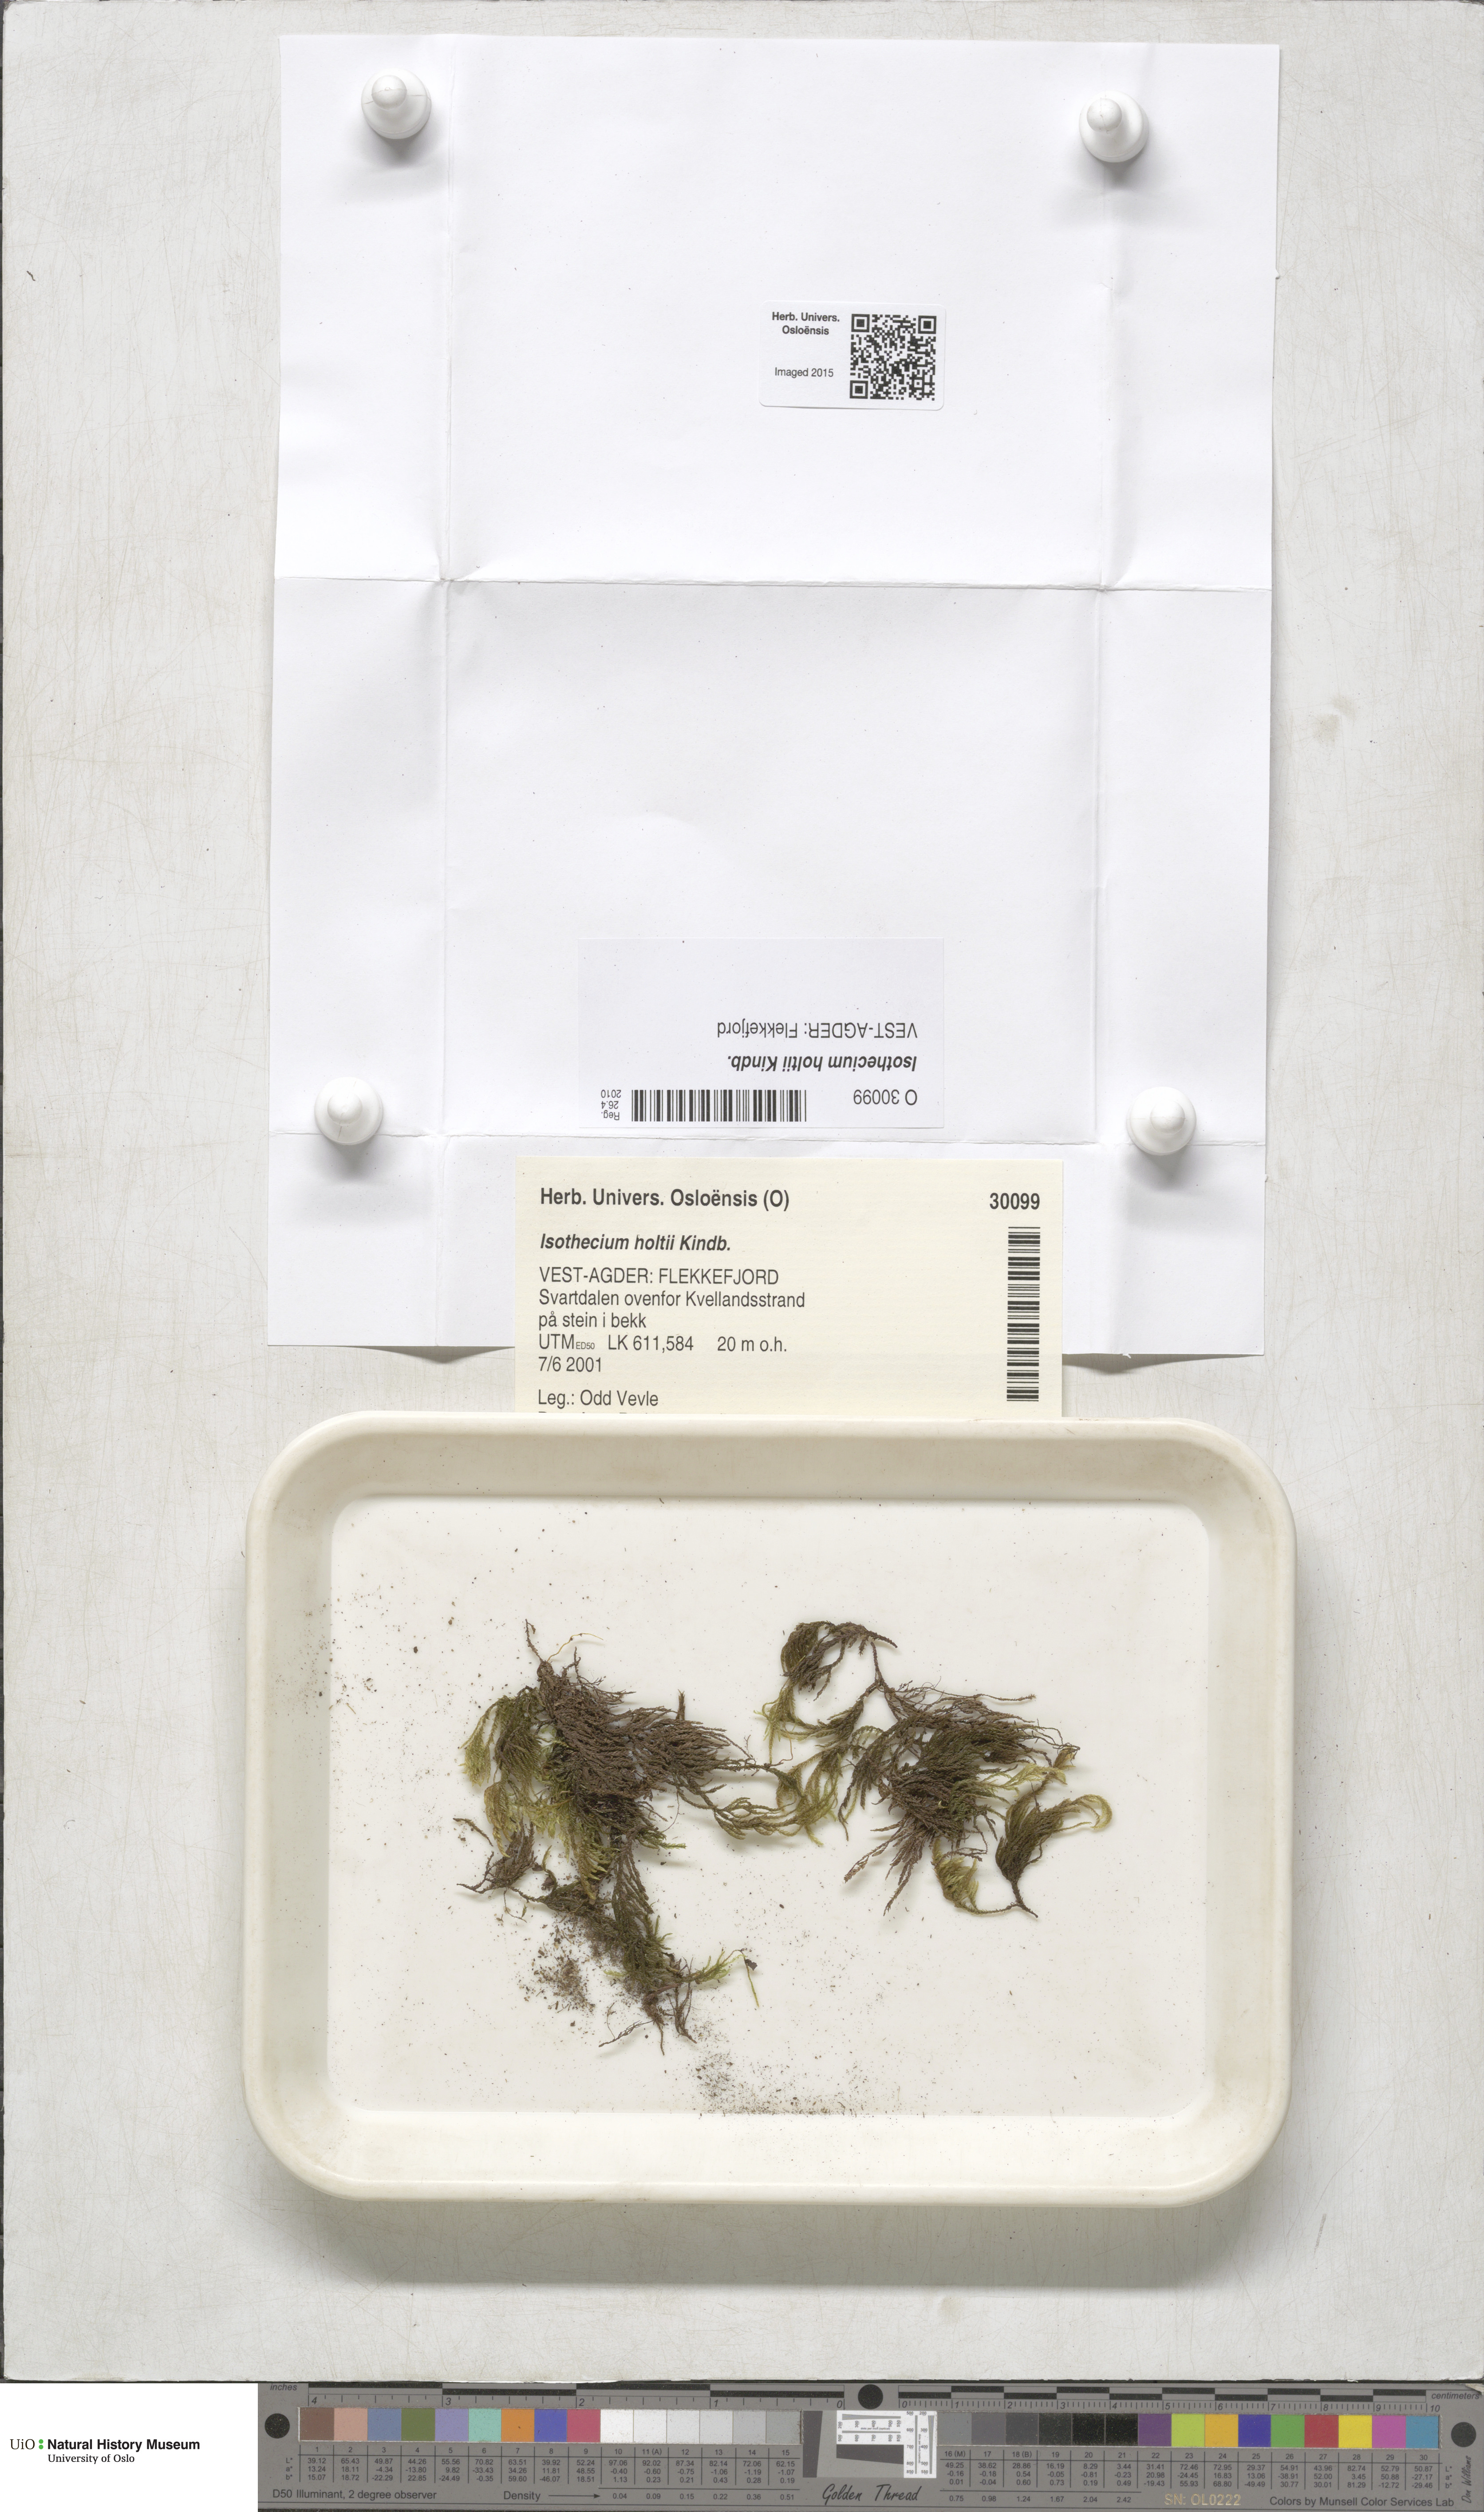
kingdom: Plantae
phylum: Bryophyta
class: Bryopsida
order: Hypnales
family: Lembophyllaceae
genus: Pseudisothecium
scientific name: Pseudisothecium holtii
